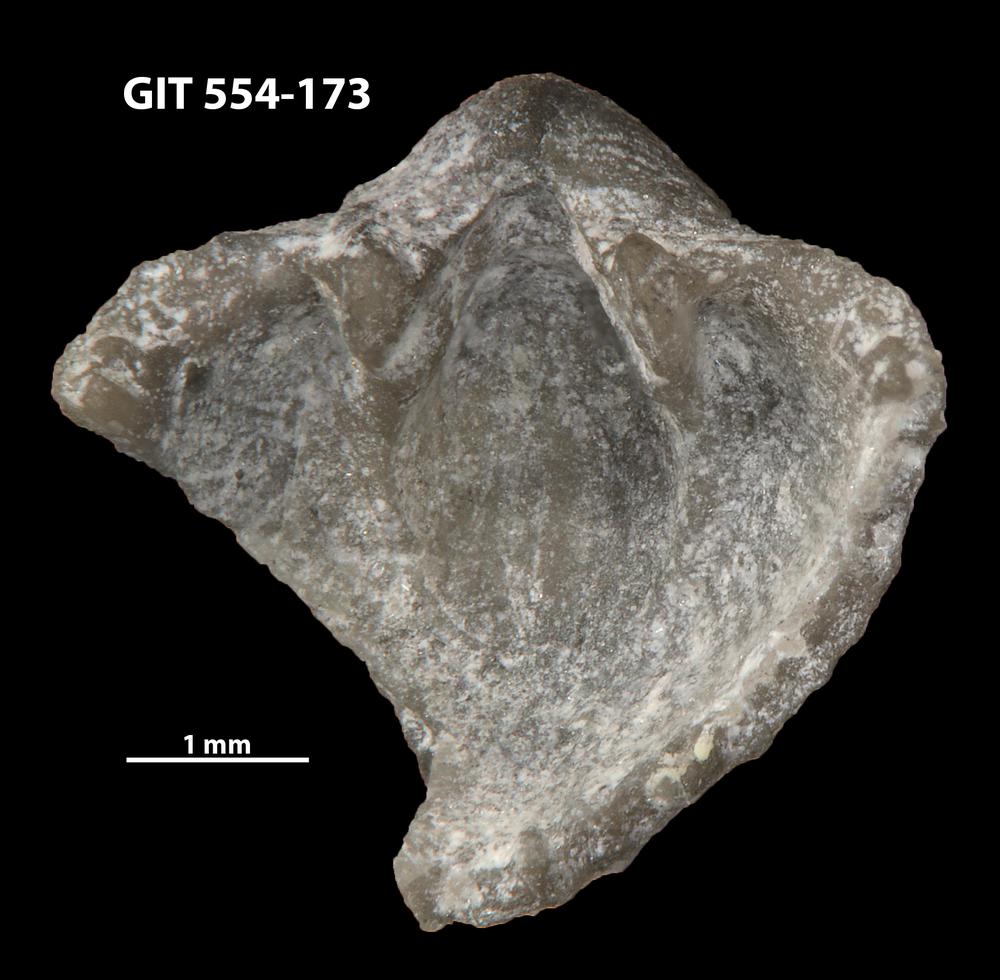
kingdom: Animalia
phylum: Brachiopoda
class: Rhynchonellata
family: Dalmanellidae
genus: Resserella
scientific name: Resserella sabrinae
